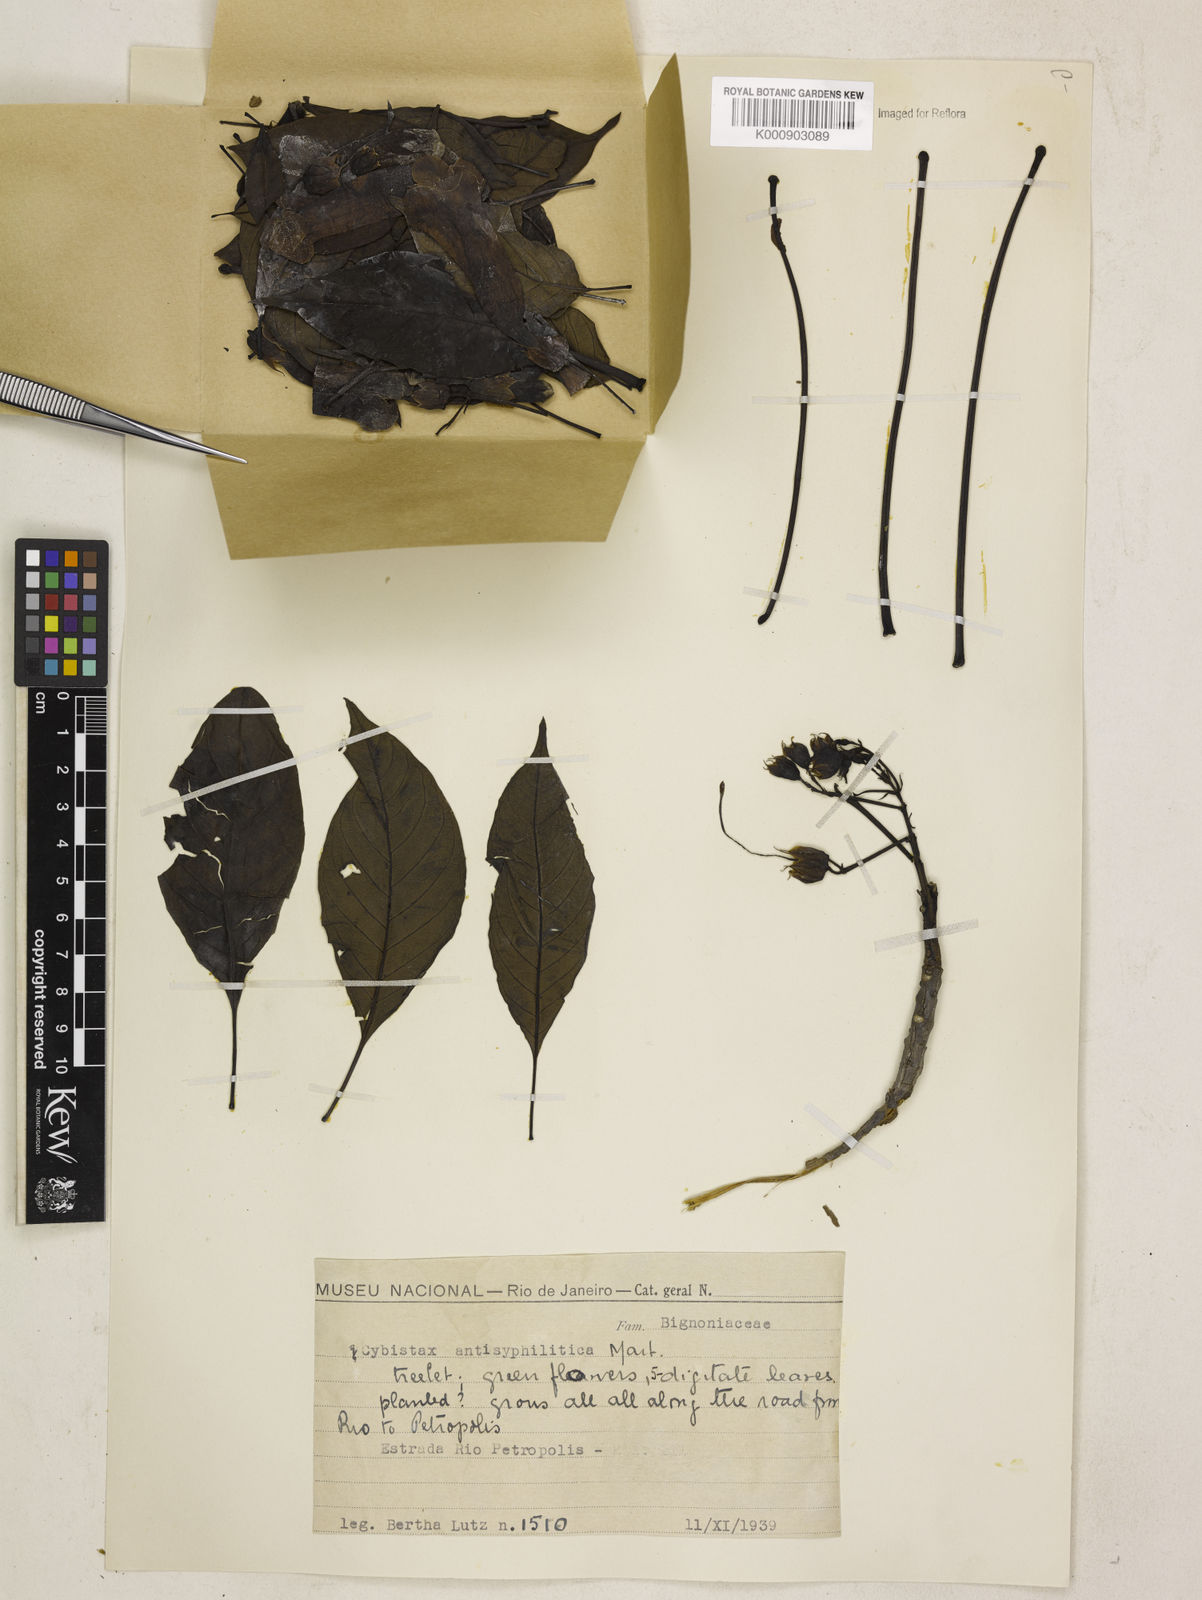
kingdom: Plantae
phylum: Tracheophyta
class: Magnoliopsida
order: Lamiales
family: Bignoniaceae
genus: Cybistax
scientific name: Cybistax antisyphilitica
